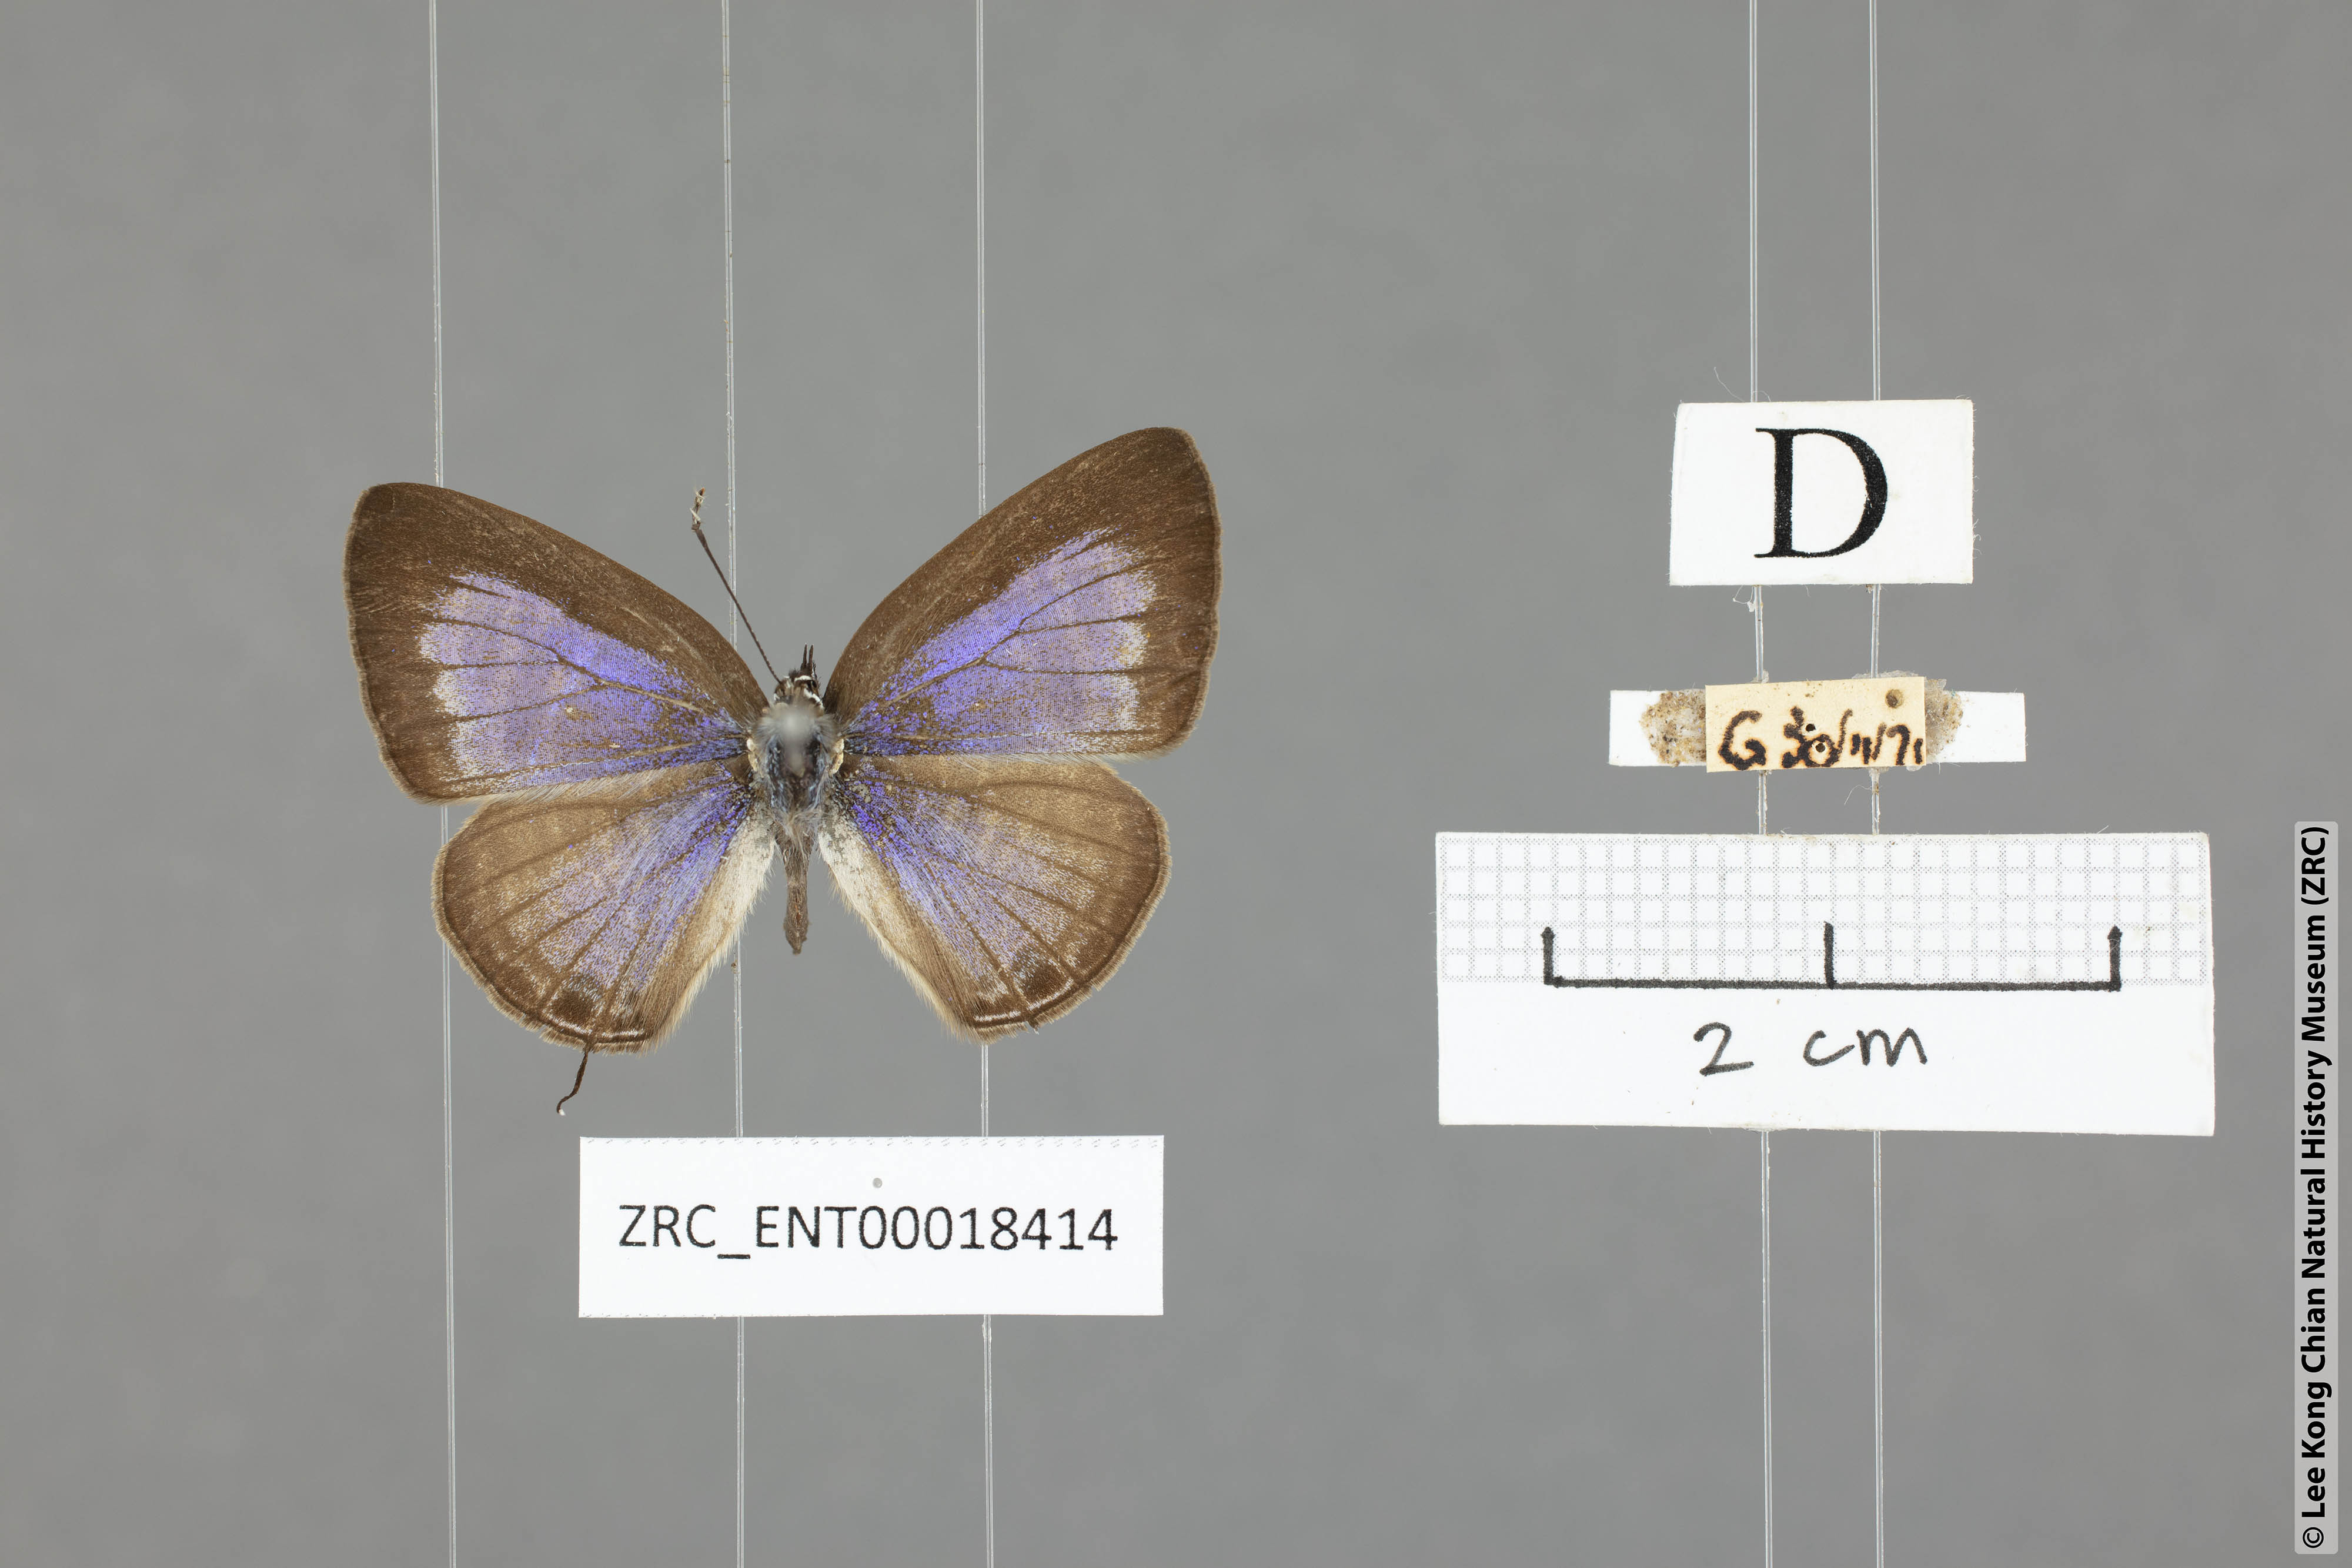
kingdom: Animalia
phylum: Arthropoda
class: Insecta
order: Lepidoptera
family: Lycaenidae
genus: Nacaduba
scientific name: Nacaduba pactolus
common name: Large fourline blue
